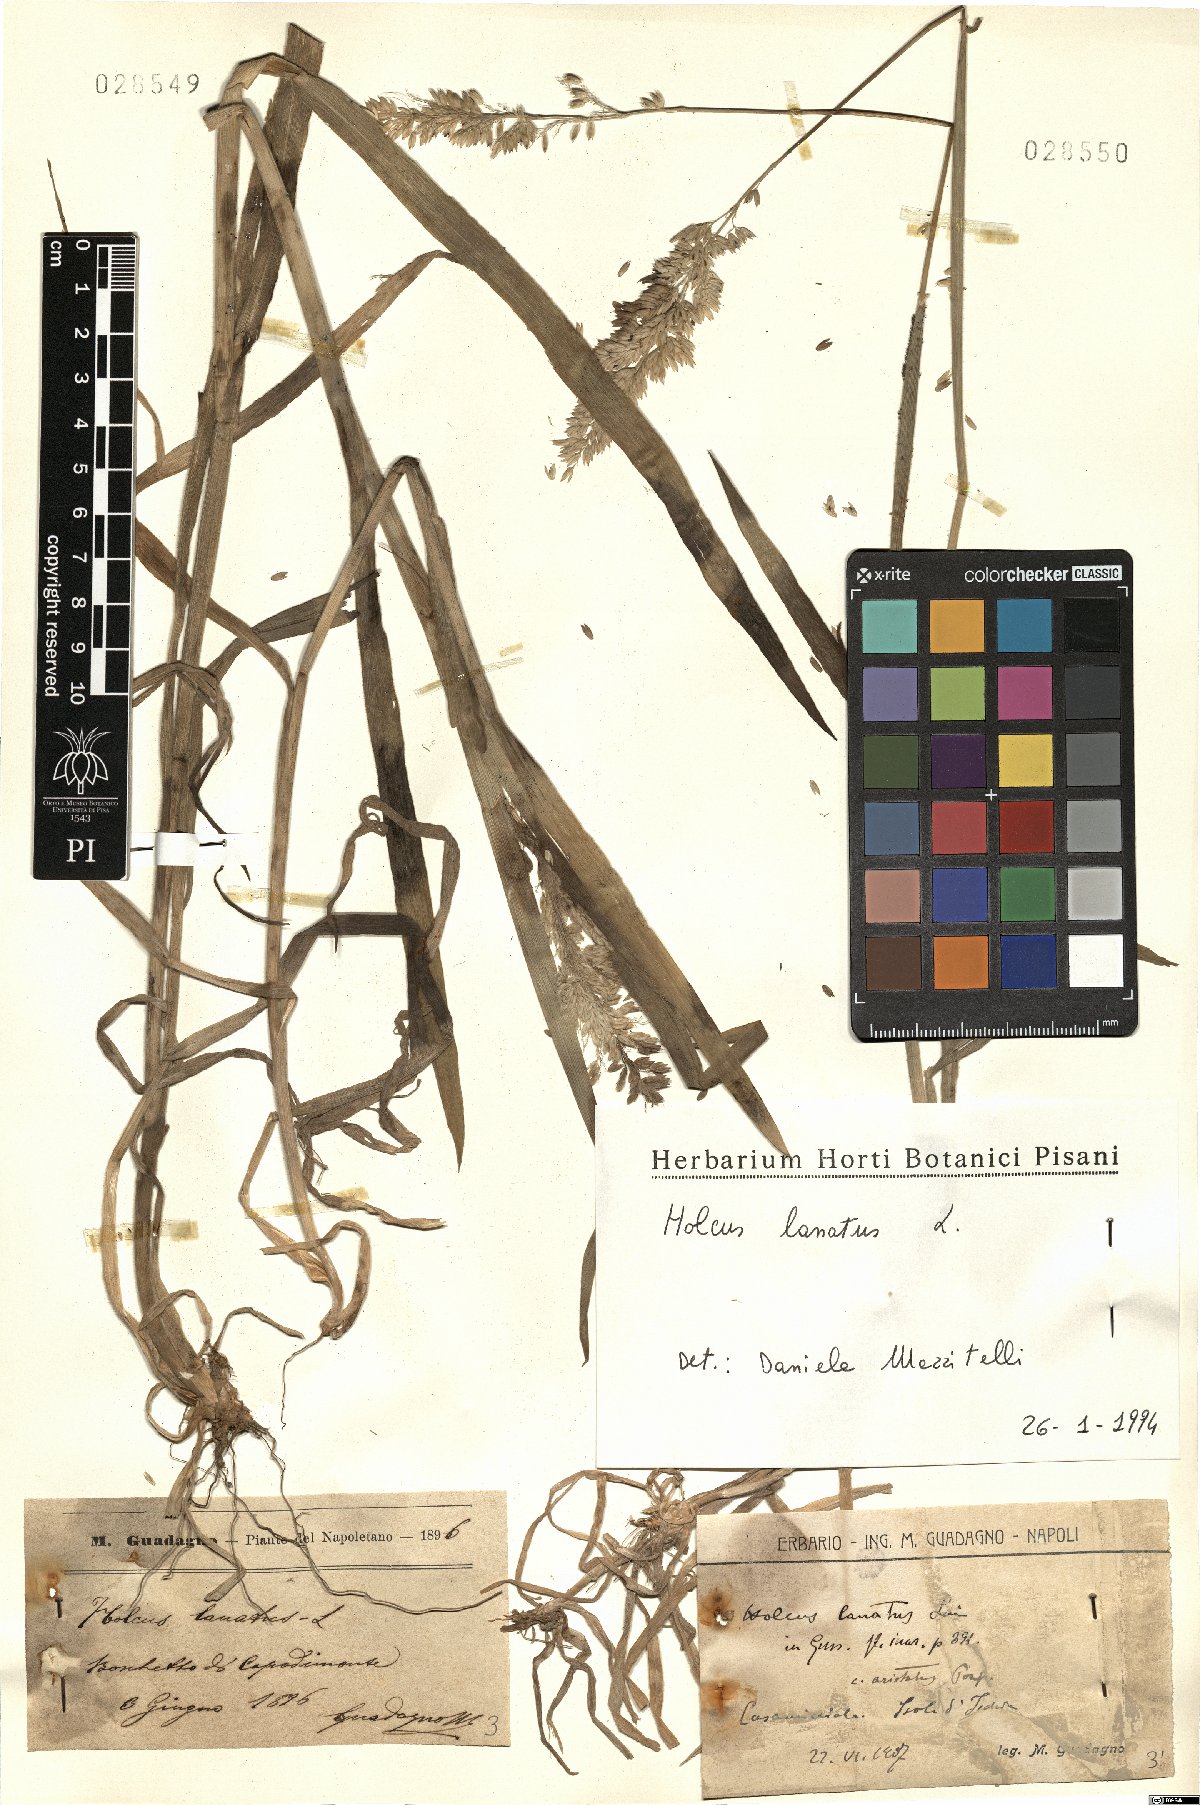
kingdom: Plantae
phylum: Tracheophyta
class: Liliopsida
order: Poales
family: Poaceae
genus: Holcus
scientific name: Holcus lanatus
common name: Yorkshire-fog
